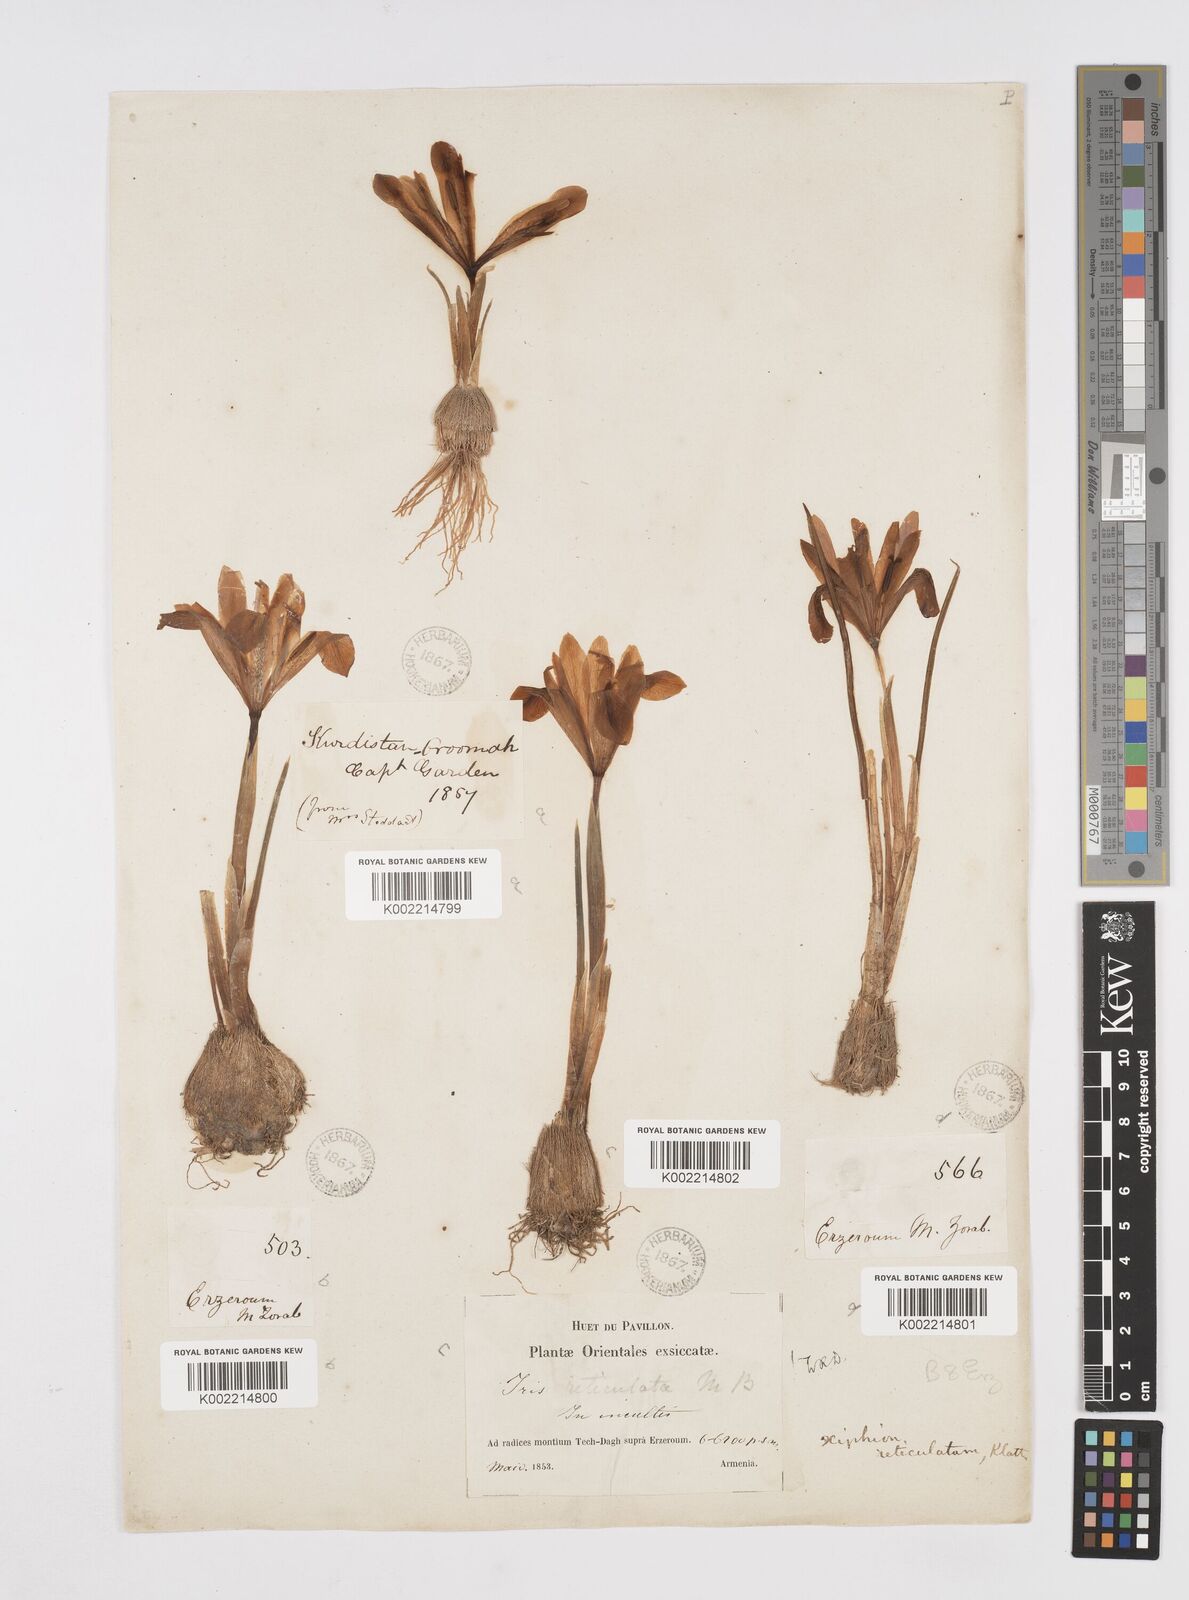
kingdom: Plantae
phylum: Tracheophyta
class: Liliopsida
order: Asparagales
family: Iridaceae
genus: Iris
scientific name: Iris reticulata
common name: Netted iris
